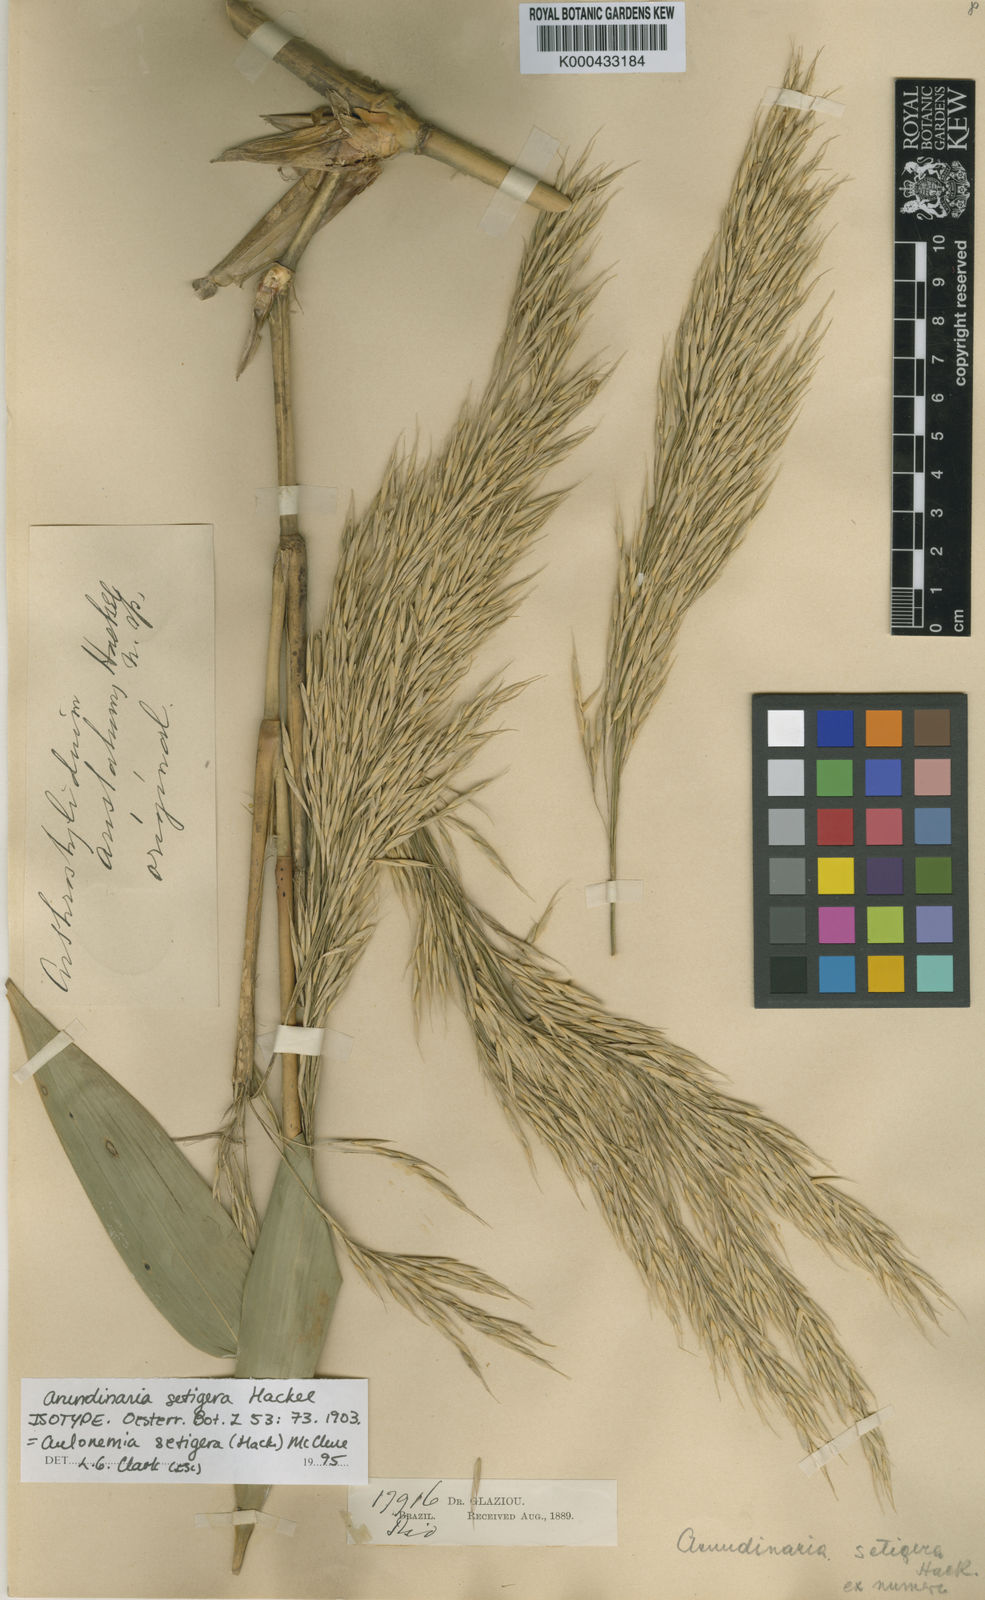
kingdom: Plantae
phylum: Tracheophyta
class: Liliopsida
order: Poales
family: Poaceae
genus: Aulonemia
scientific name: Aulonemia setigera
